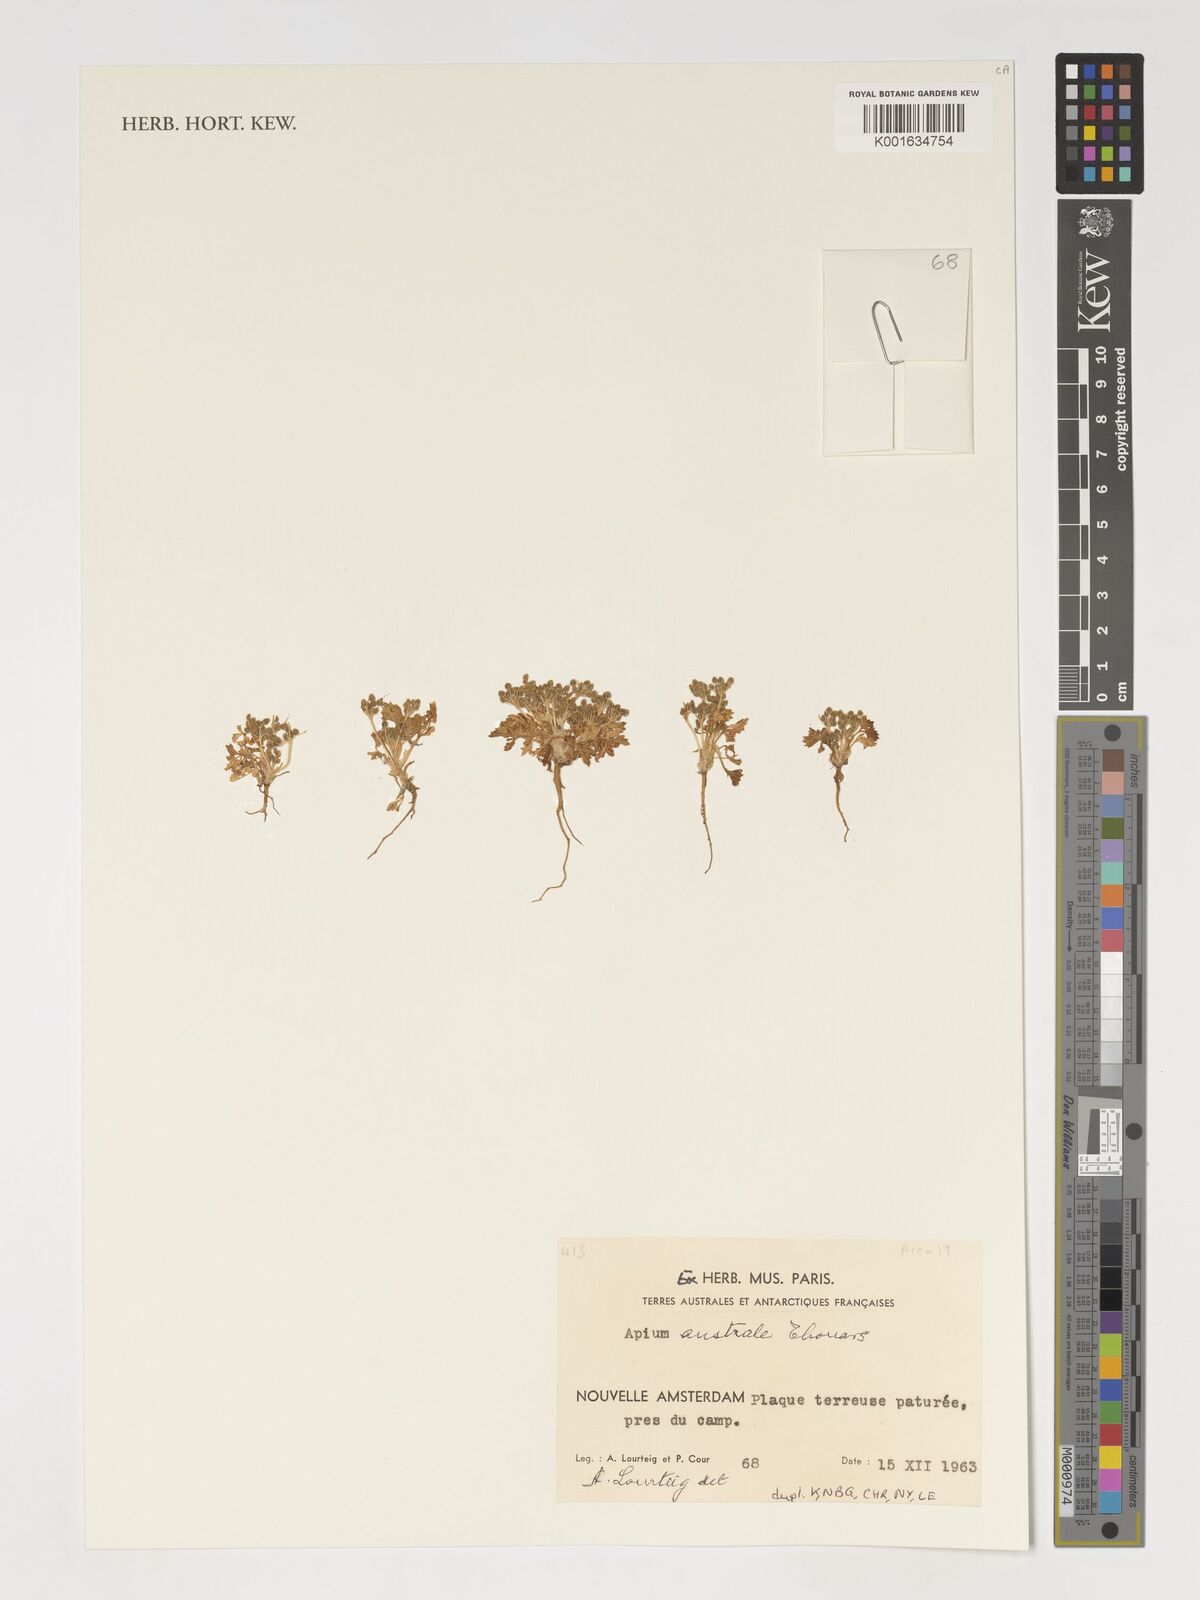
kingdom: Plantae
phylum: Tracheophyta
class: Magnoliopsida
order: Apiales
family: Apiaceae
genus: Apium
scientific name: Apium prostratum
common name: Prostrate marshwort
